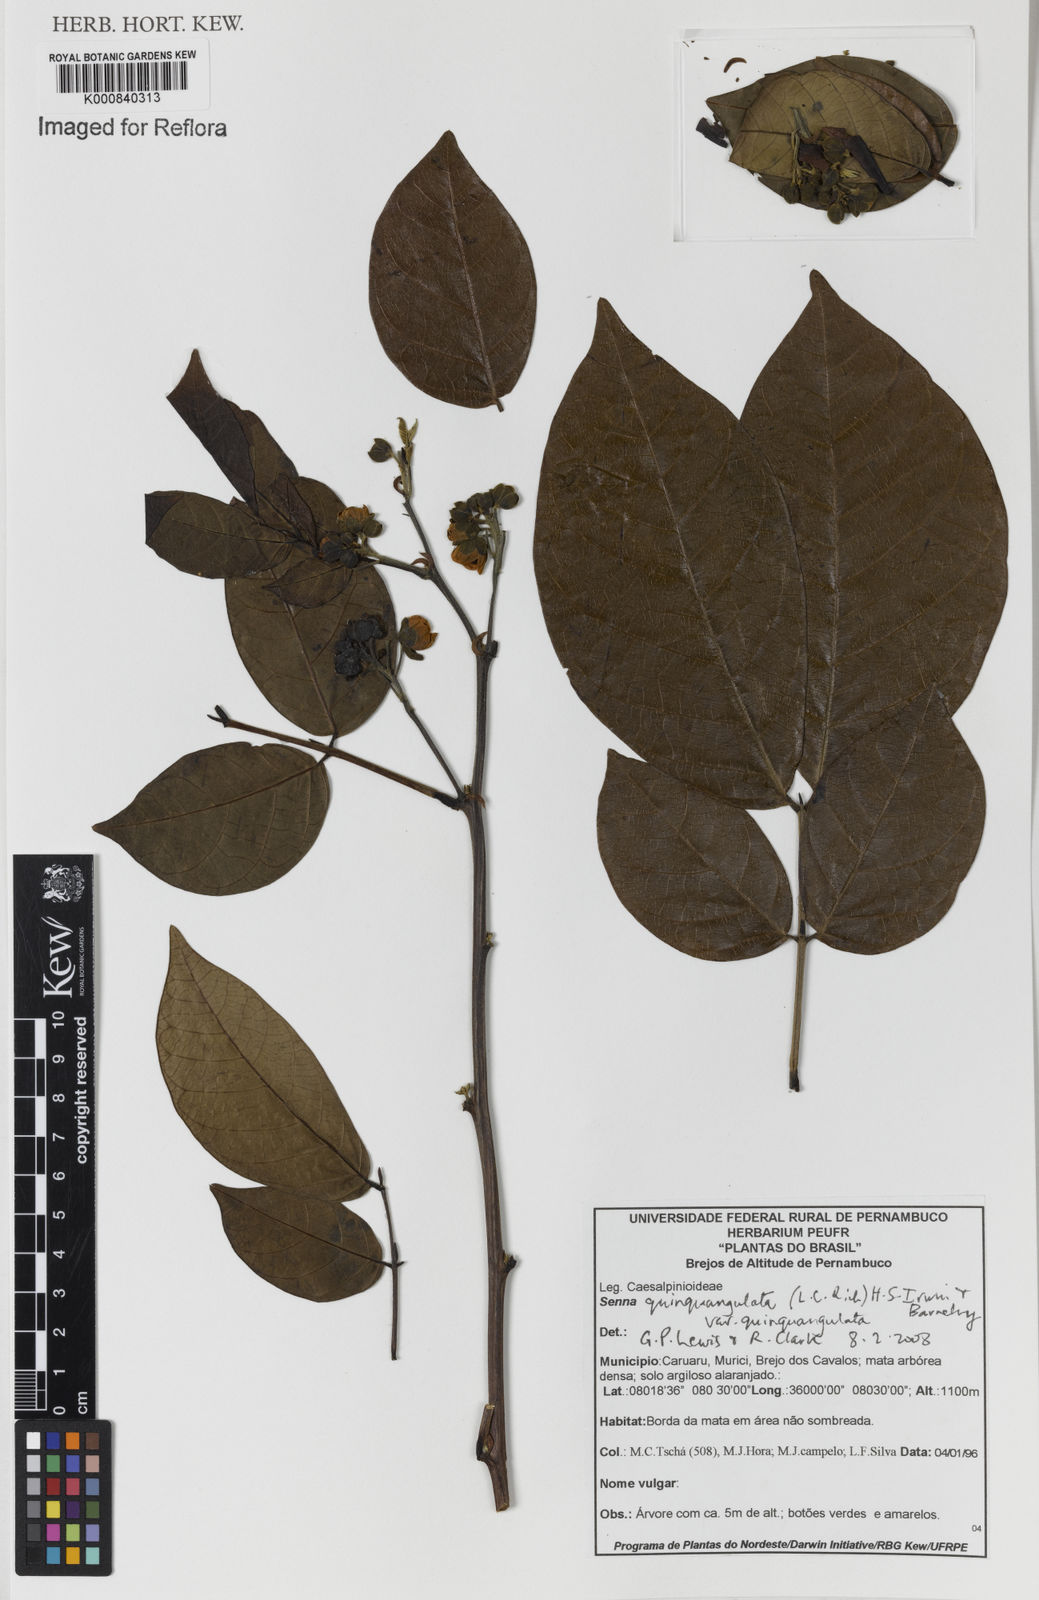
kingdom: Plantae
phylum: Tracheophyta
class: Magnoliopsida
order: Fabales
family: Fabaceae
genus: Senna
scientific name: Senna
